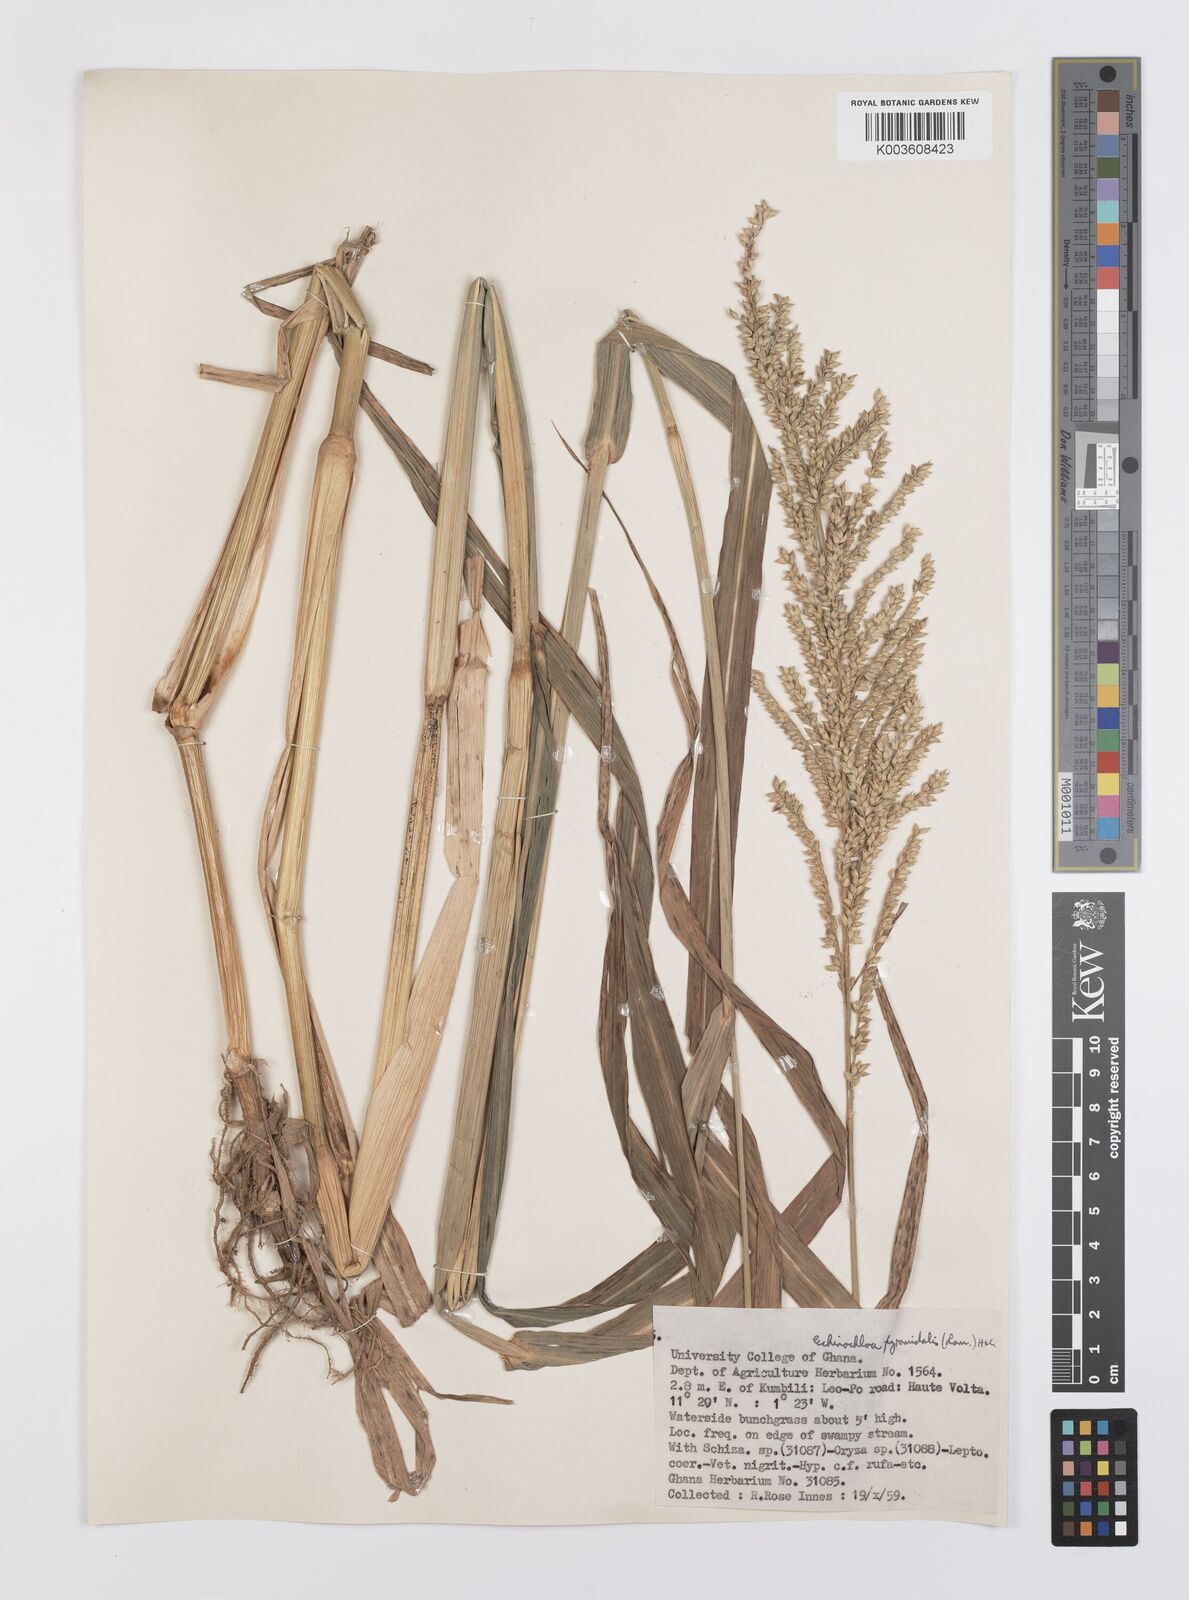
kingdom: Plantae
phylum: Tracheophyta
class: Liliopsida
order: Poales
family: Poaceae
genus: Echinochloa
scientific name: Echinochloa pyramidalis
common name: Antelope grass
